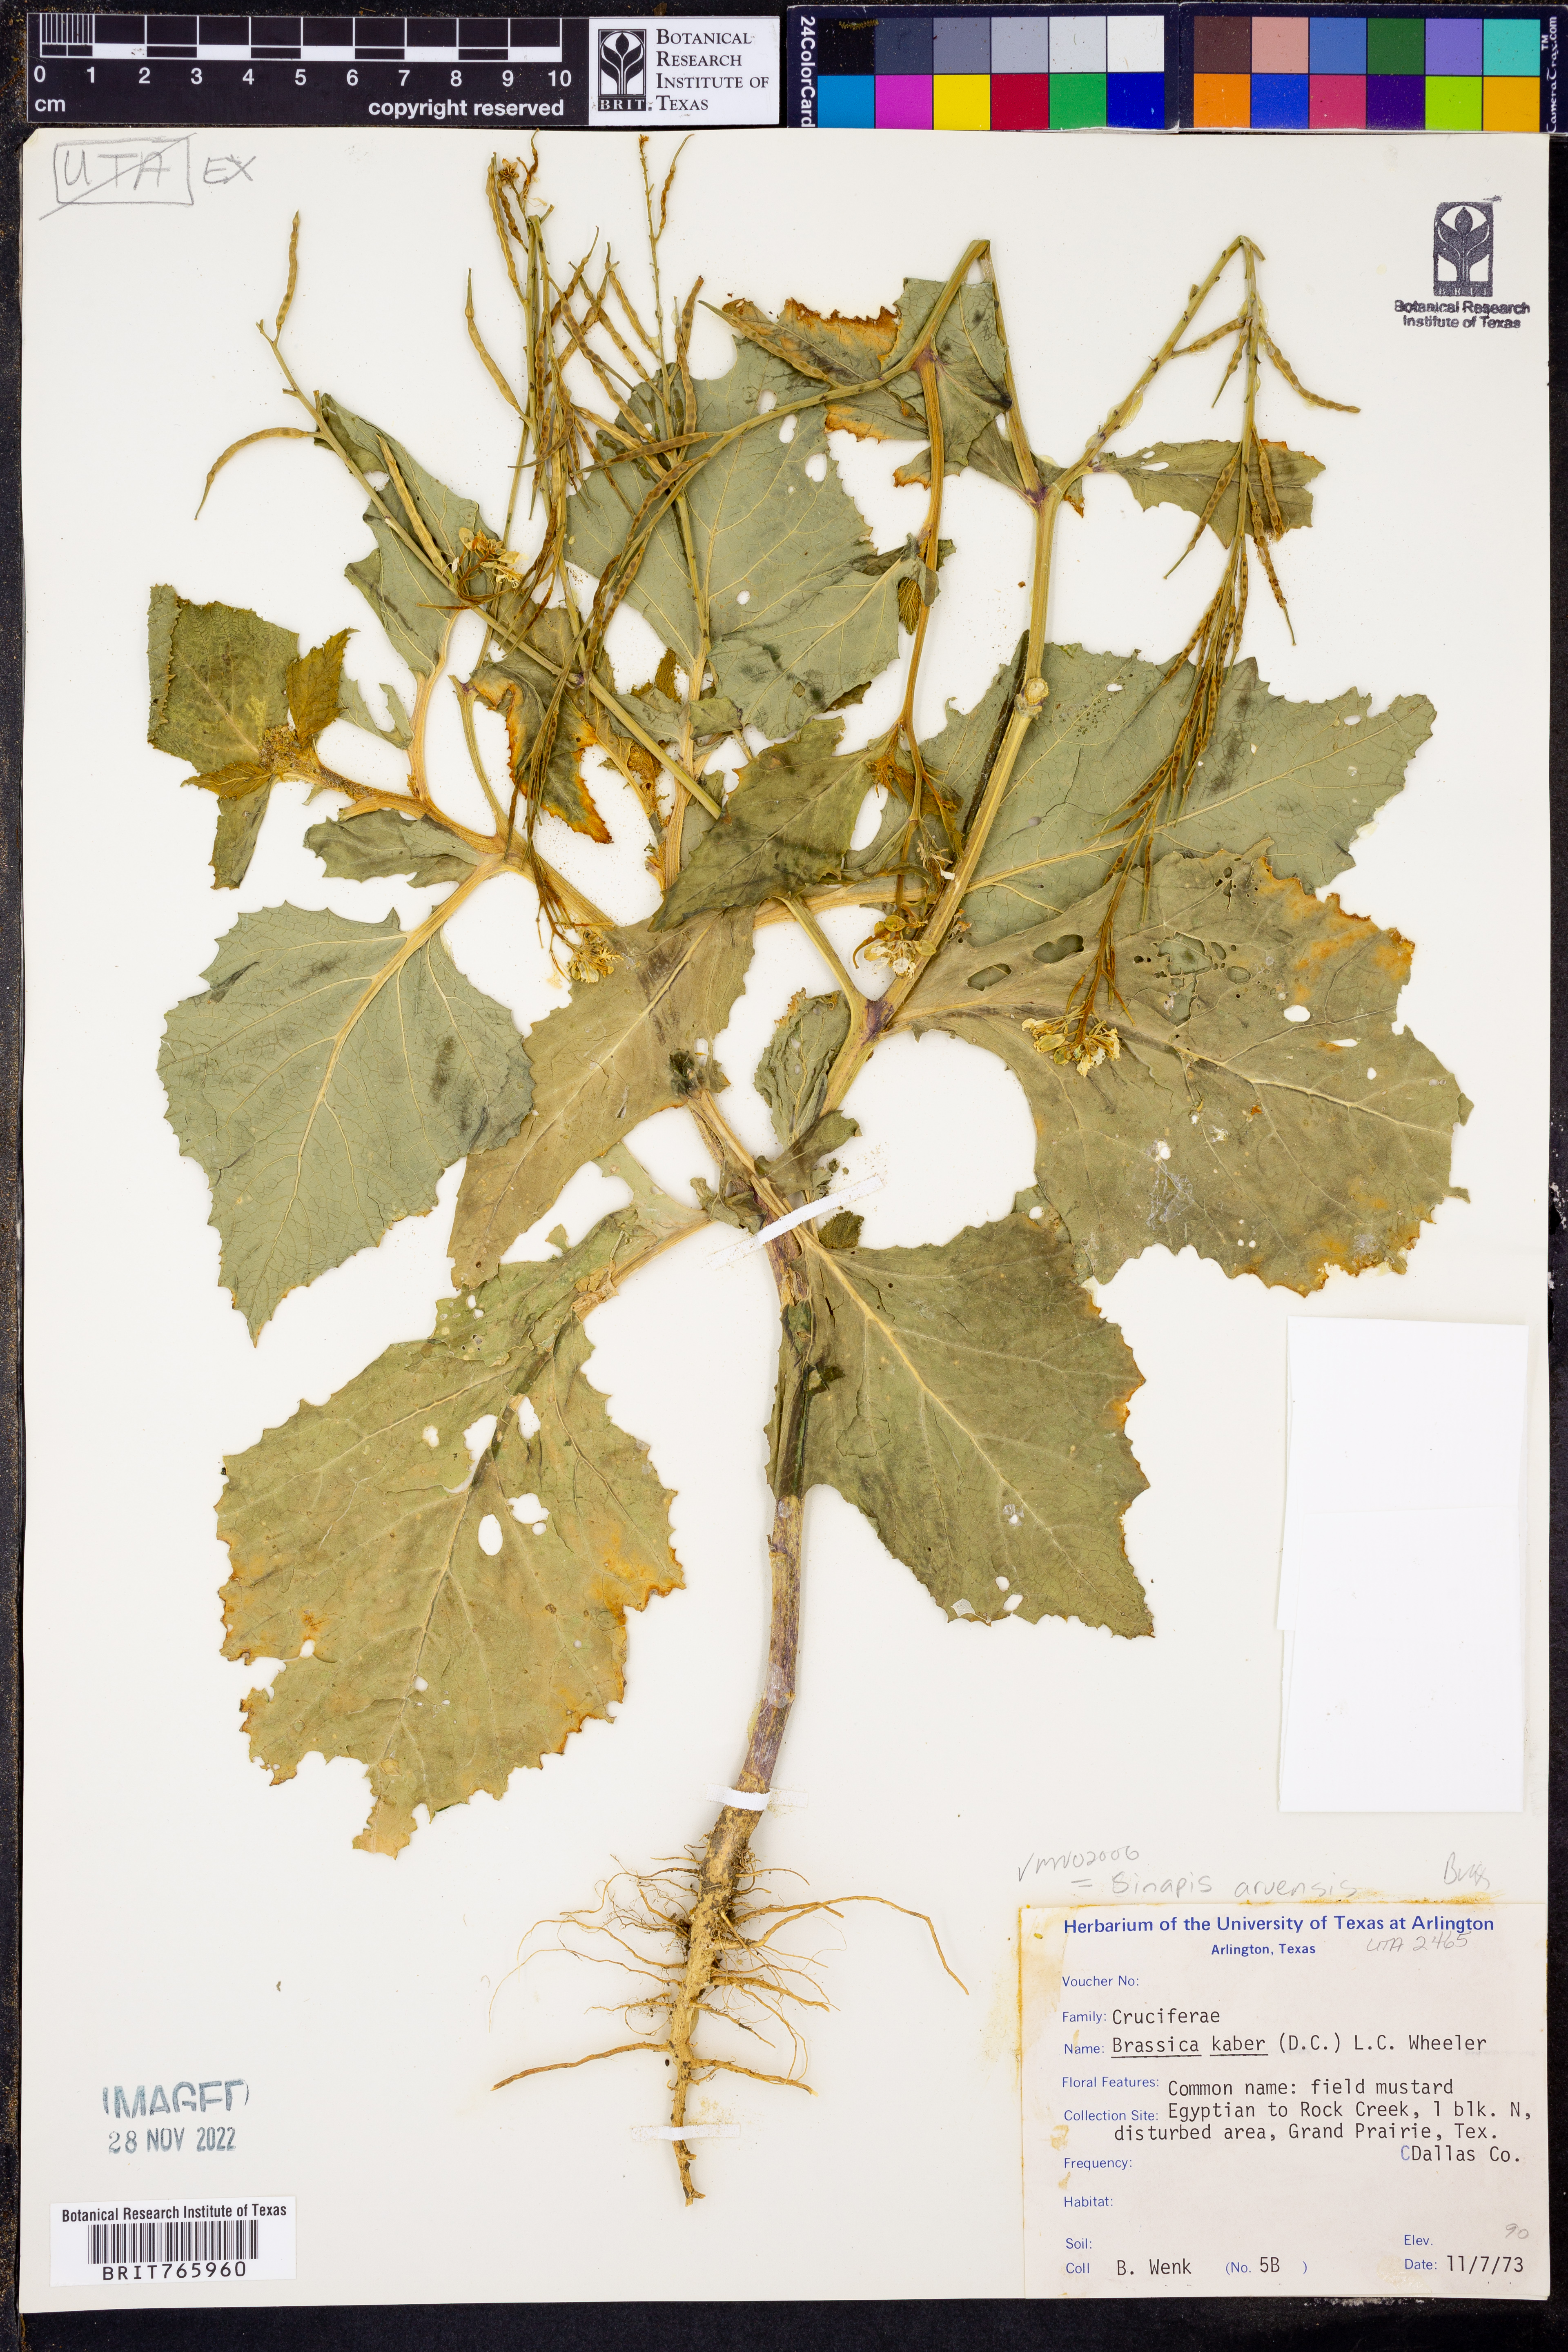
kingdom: Plantae
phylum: Tracheophyta
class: Magnoliopsida
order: Brassicales
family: Brassicaceae
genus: Sinapis
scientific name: Sinapis arvensis
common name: Charlock
